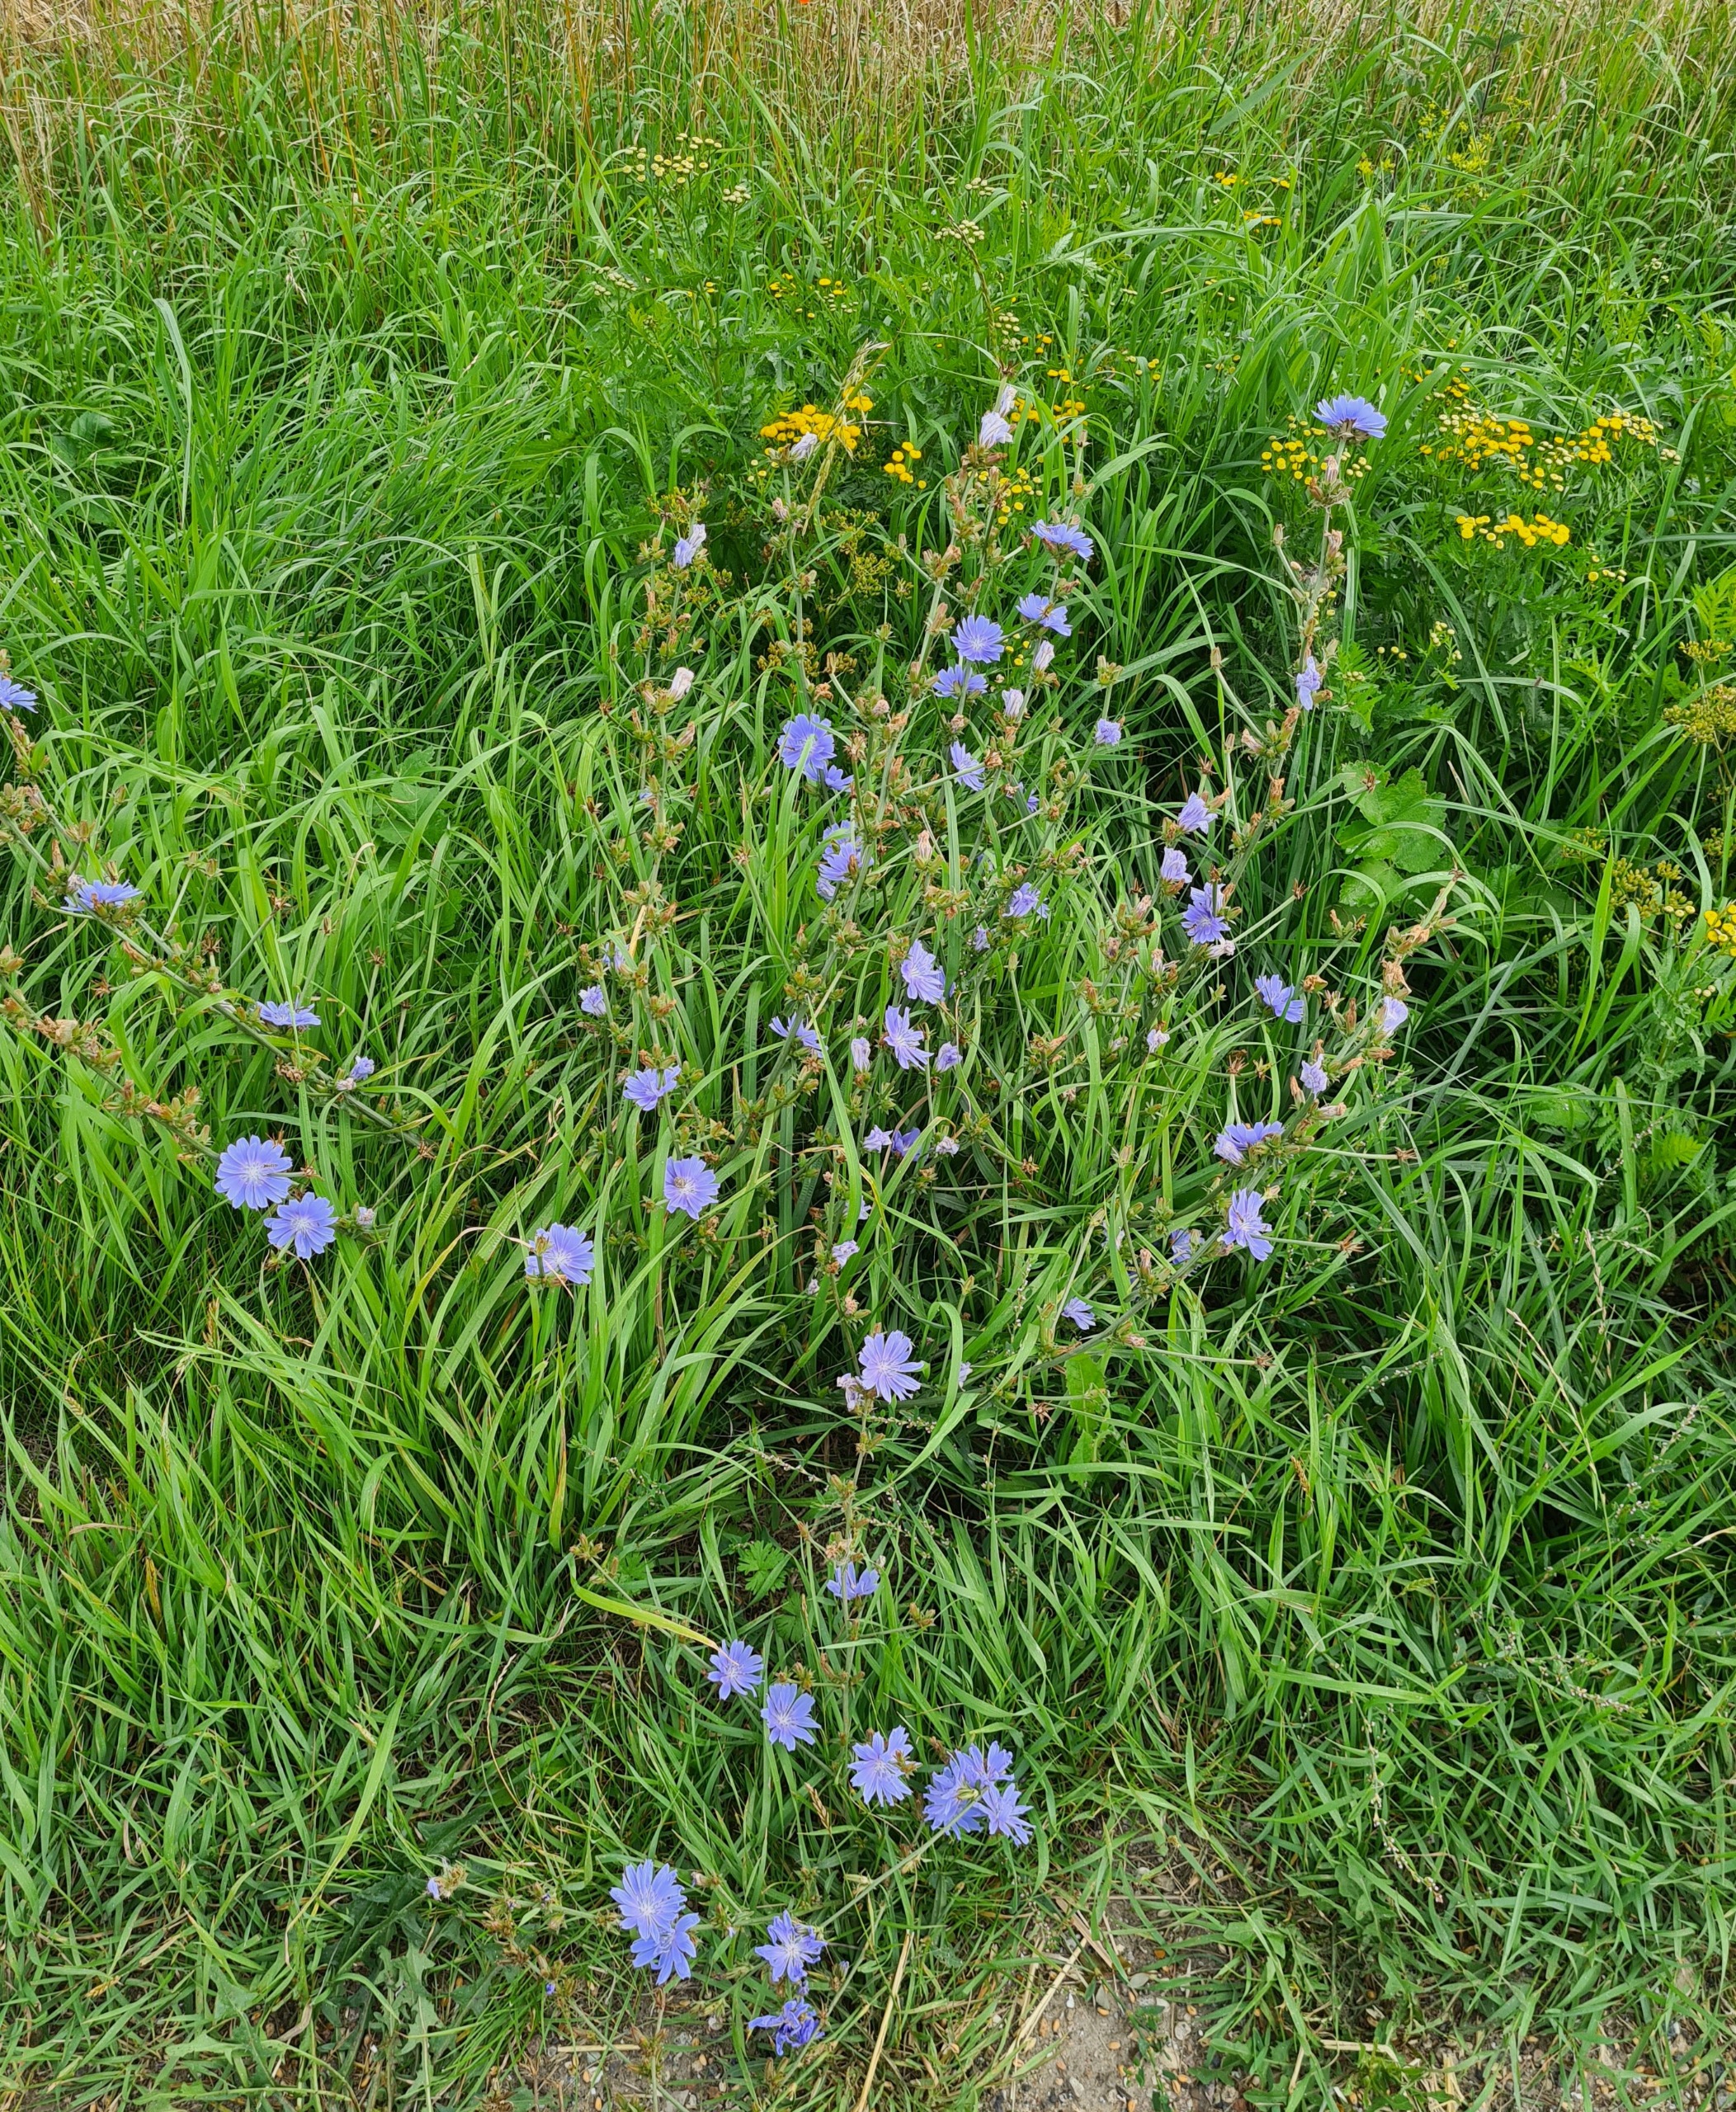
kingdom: Plantae
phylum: Tracheophyta
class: Magnoliopsida
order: Asterales
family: Asteraceae
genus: Cichorium
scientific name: Cichorium intybus
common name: Cikorie
